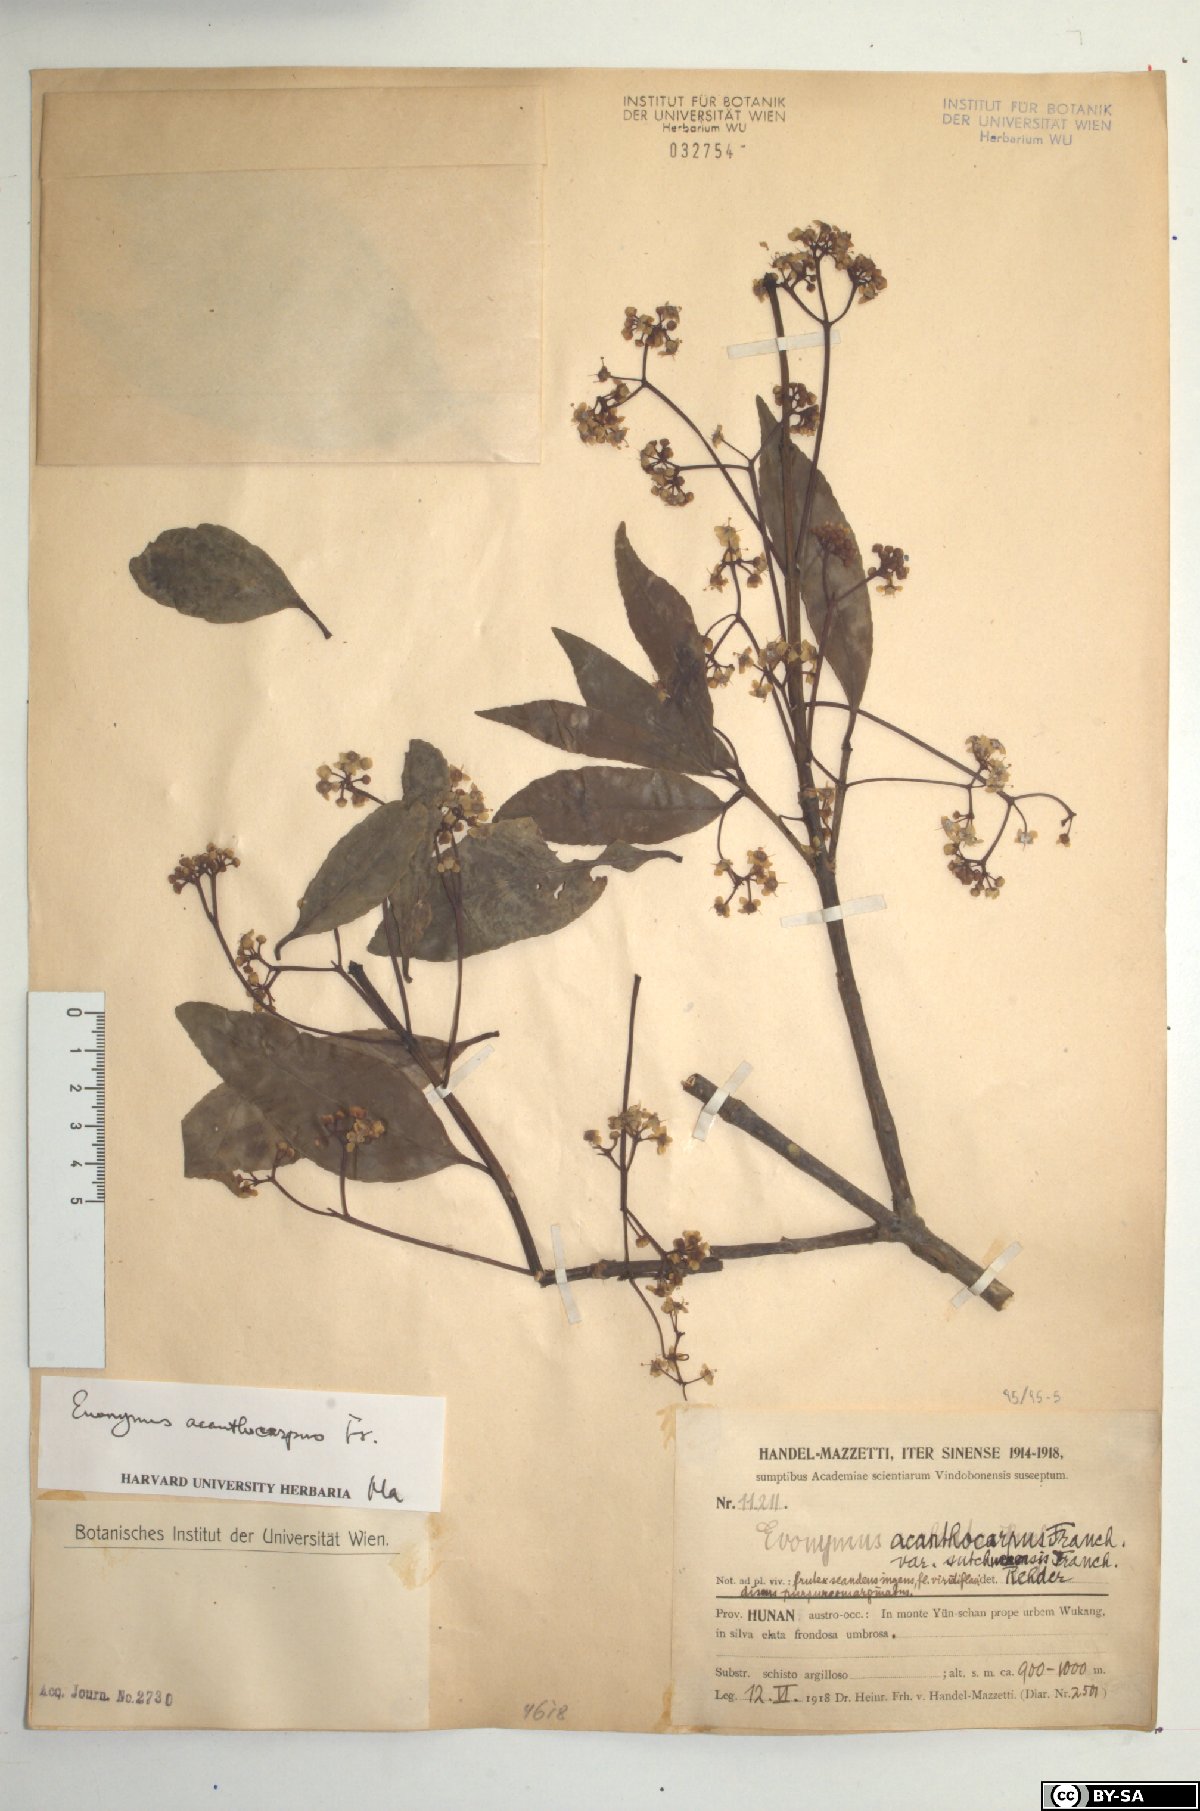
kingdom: Plantae
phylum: Tracheophyta
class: Magnoliopsida
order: Celastrales
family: Celastraceae
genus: Euonymus
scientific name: Euonymus acanthocarpus
